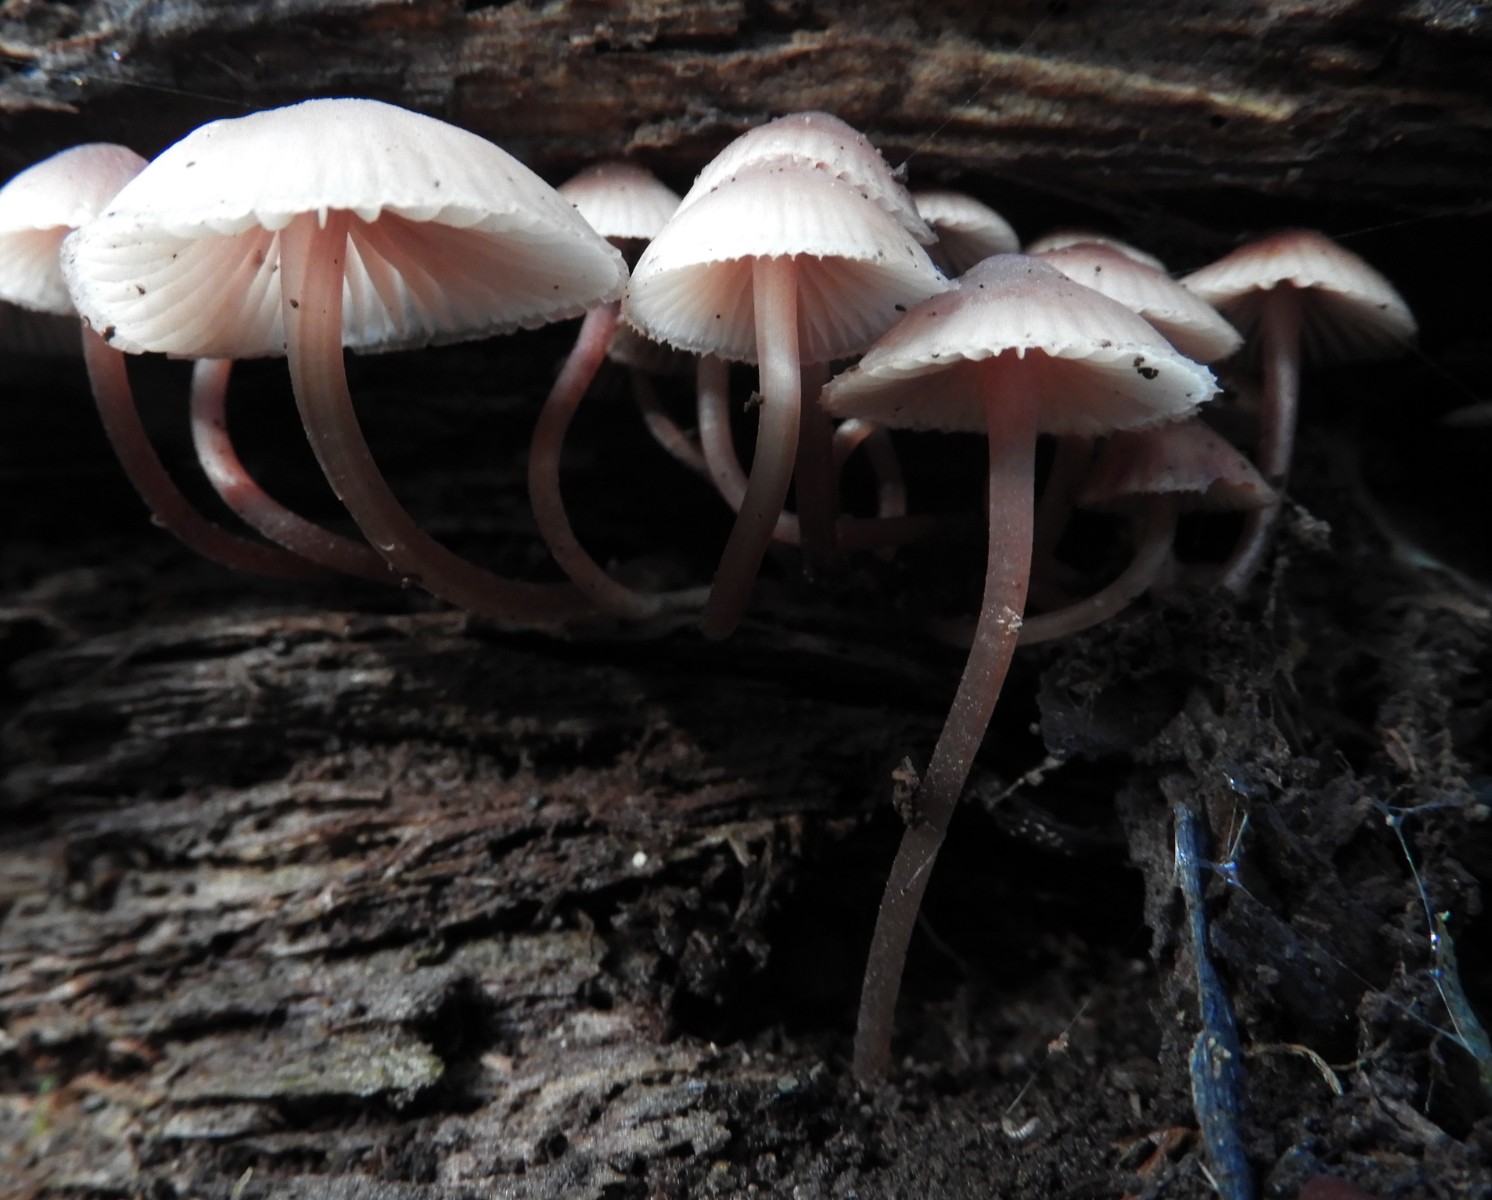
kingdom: Fungi
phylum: Basidiomycota
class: Agaricomycetes
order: Agaricales
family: Mycenaceae
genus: Mycena
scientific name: Mycena haematopus
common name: blødende huesvamp
